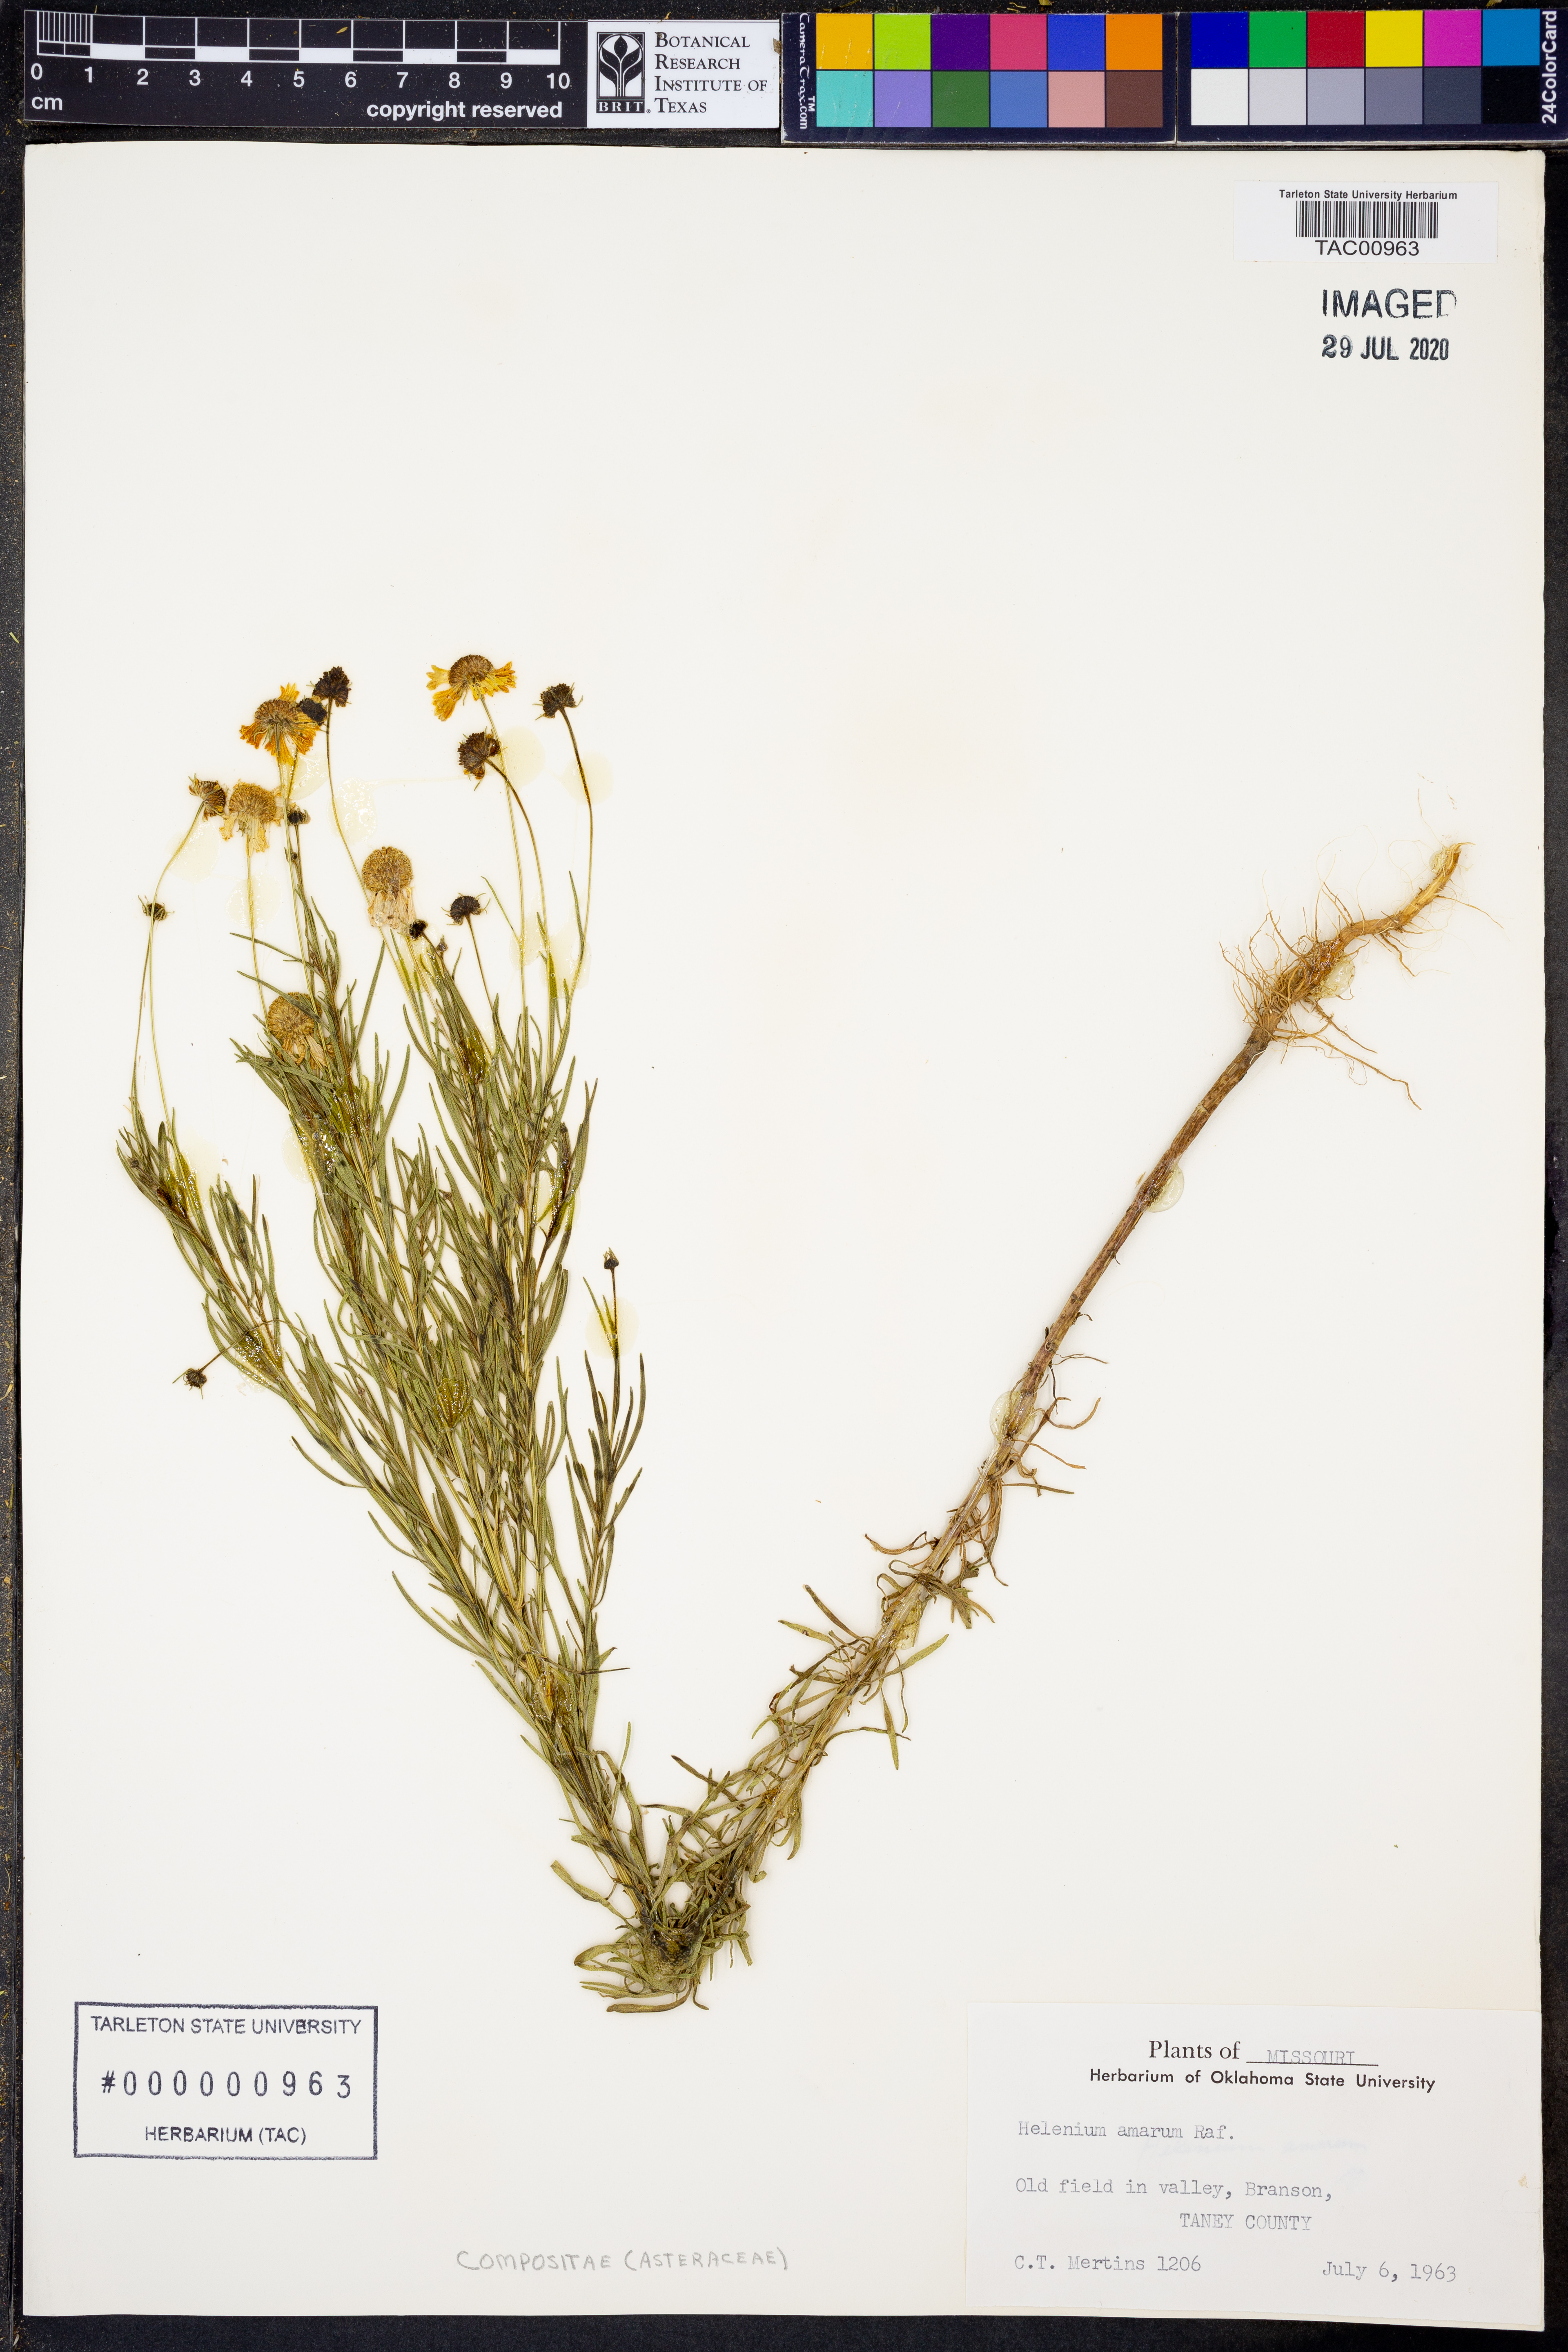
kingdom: Plantae
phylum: Tracheophyta
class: Magnoliopsida
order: Asterales
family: Asteraceae
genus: Helenium
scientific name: Helenium amarum
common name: Bitter sneezeweed
